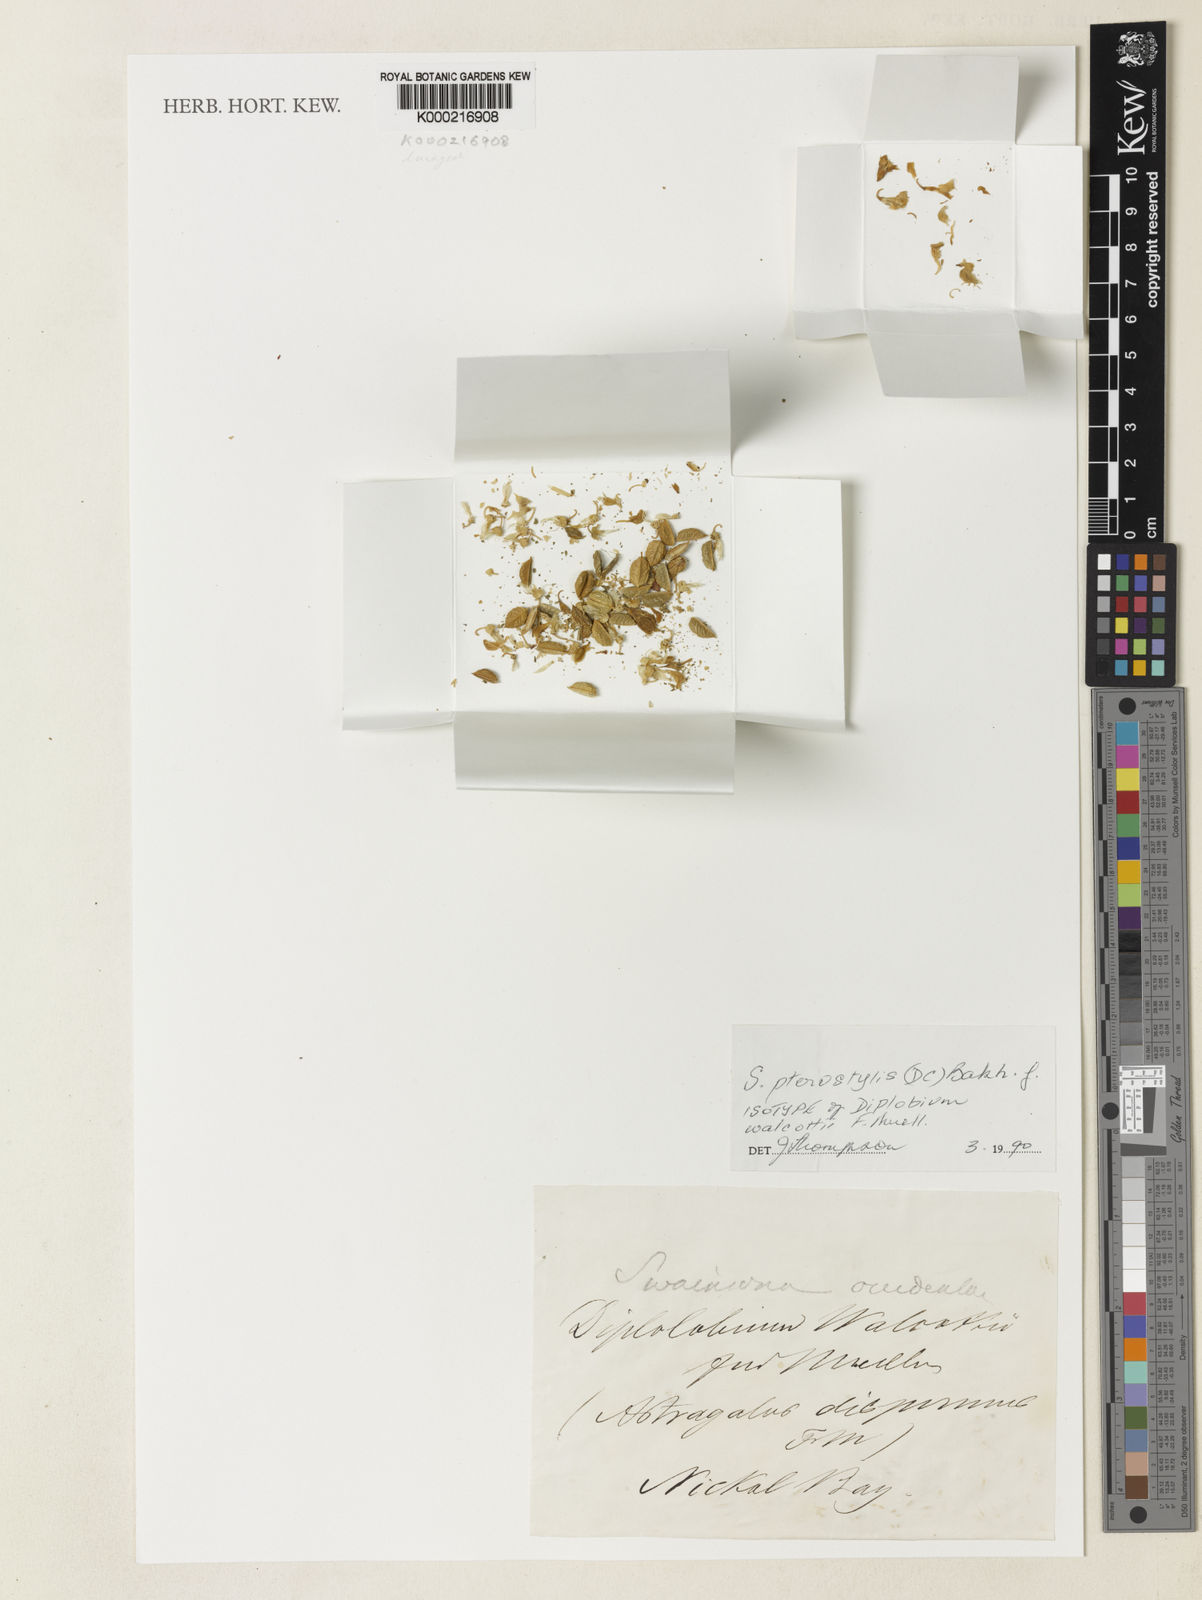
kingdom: Plantae
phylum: Tracheophyta
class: Magnoliopsida
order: Fabales
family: Fabaceae
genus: Swainsona
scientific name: Swainsona pterostylis
